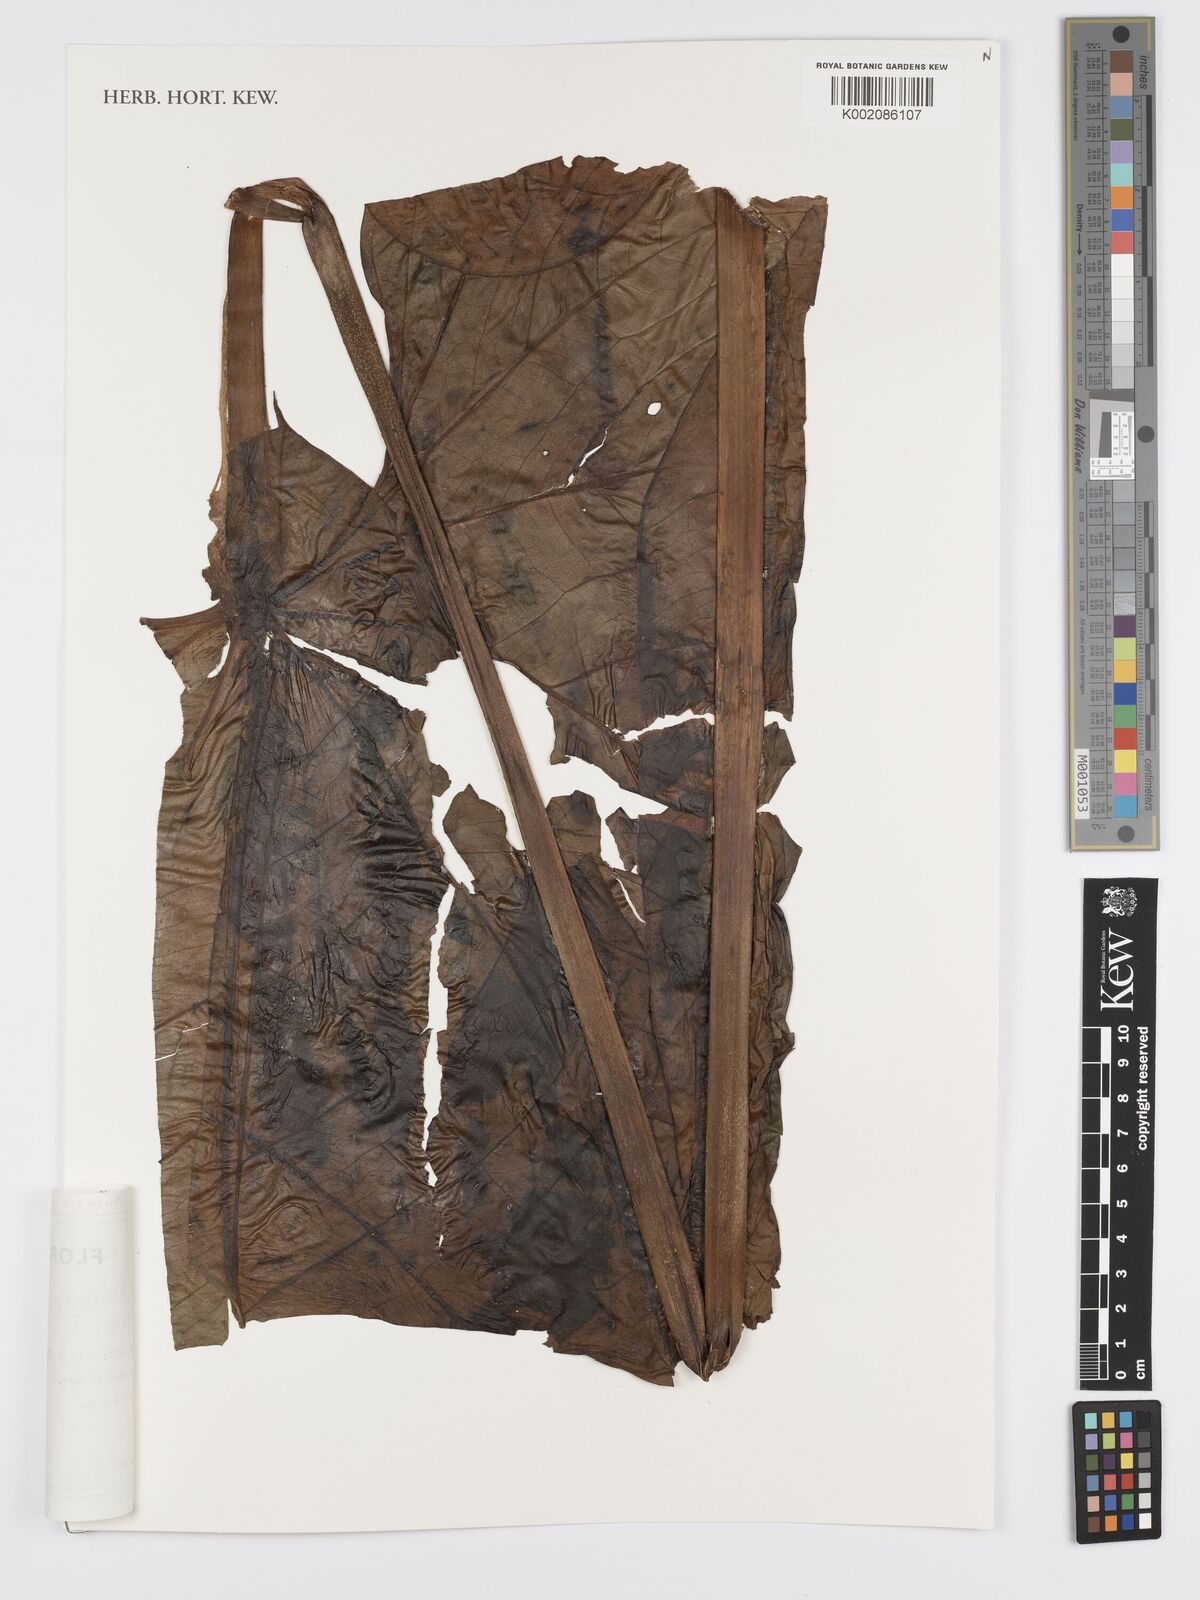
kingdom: Plantae
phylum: Tracheophyta
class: Liliopsida
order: Alismatales
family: Araceae
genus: Anthurium
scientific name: Anthurium formosum
